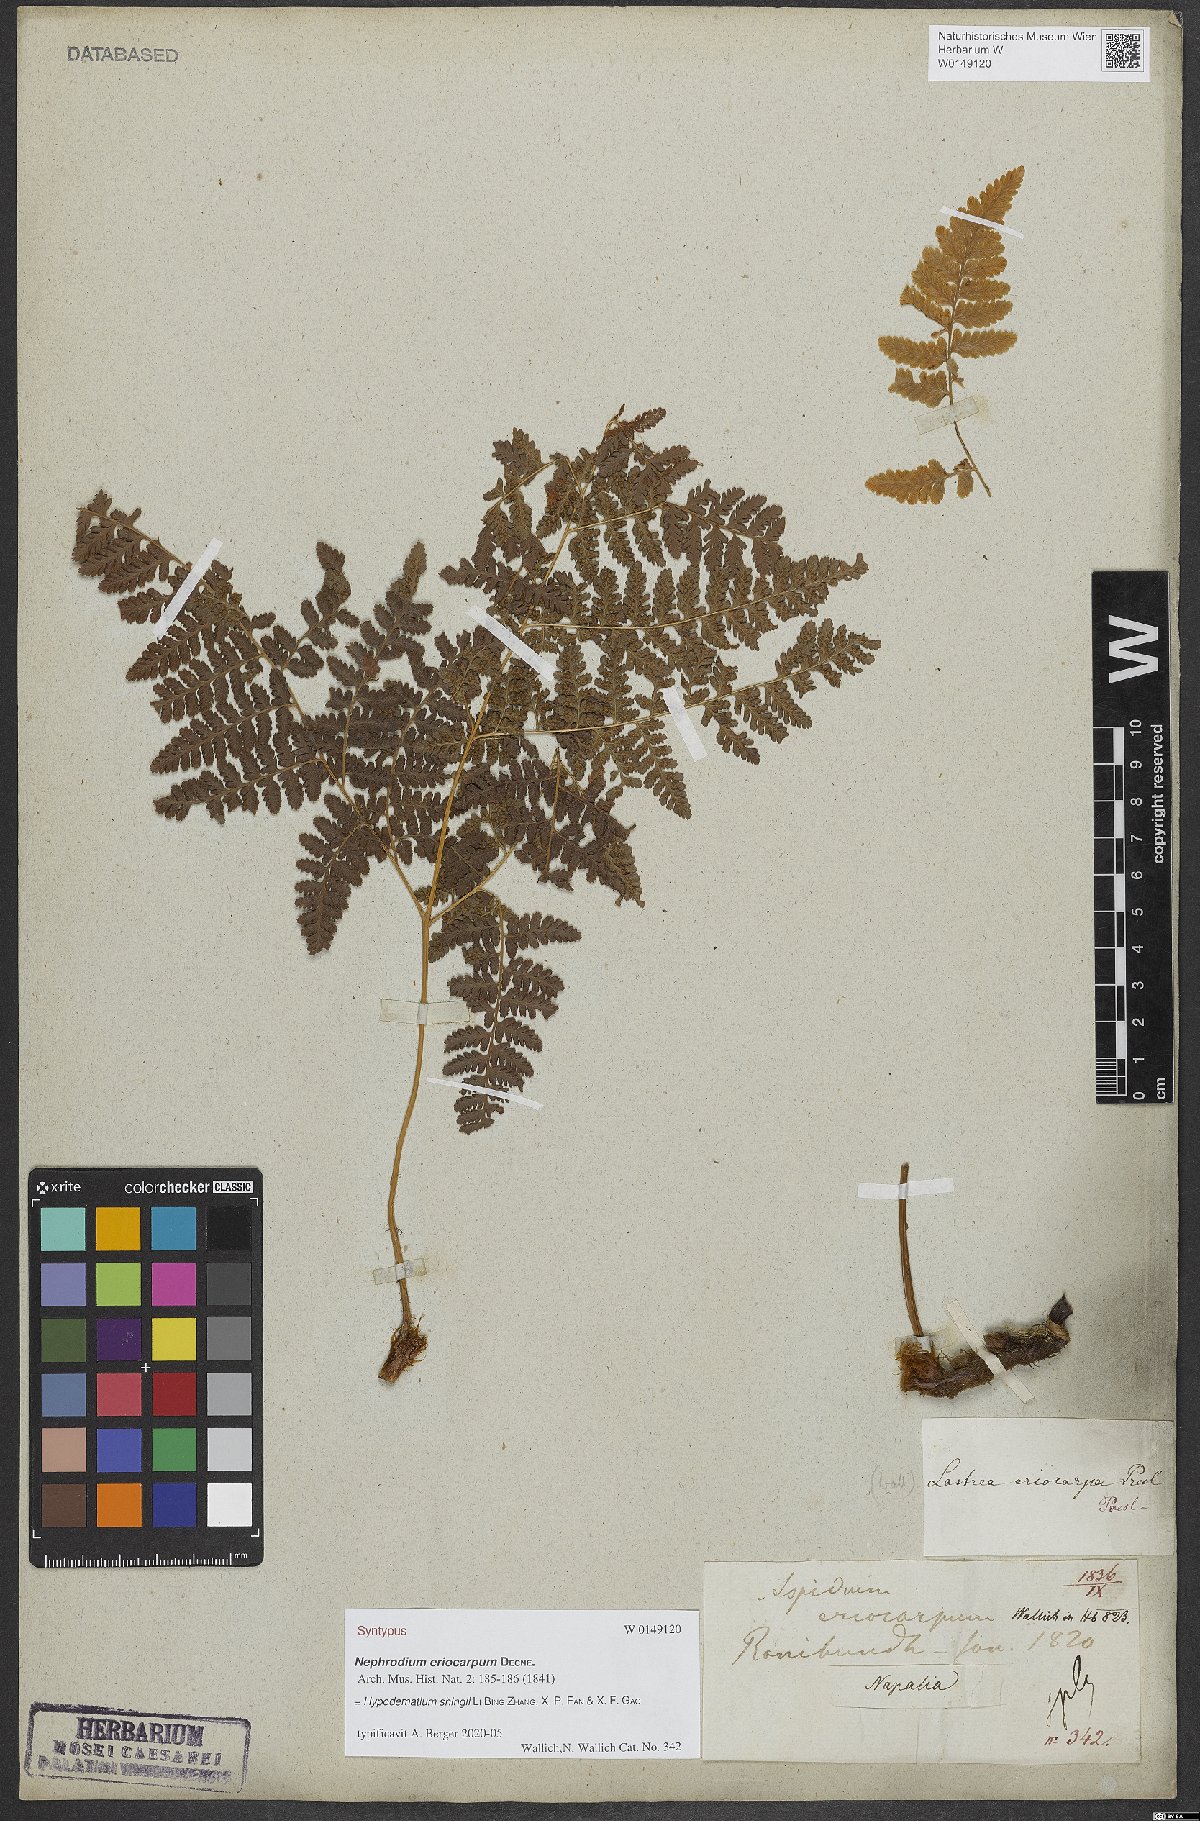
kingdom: Plantae
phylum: Tracheophyta
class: Polypodiopsida
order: Polypodiales
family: Hypodematiaceae
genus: Hypodematium
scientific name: Hypodematium shingii
